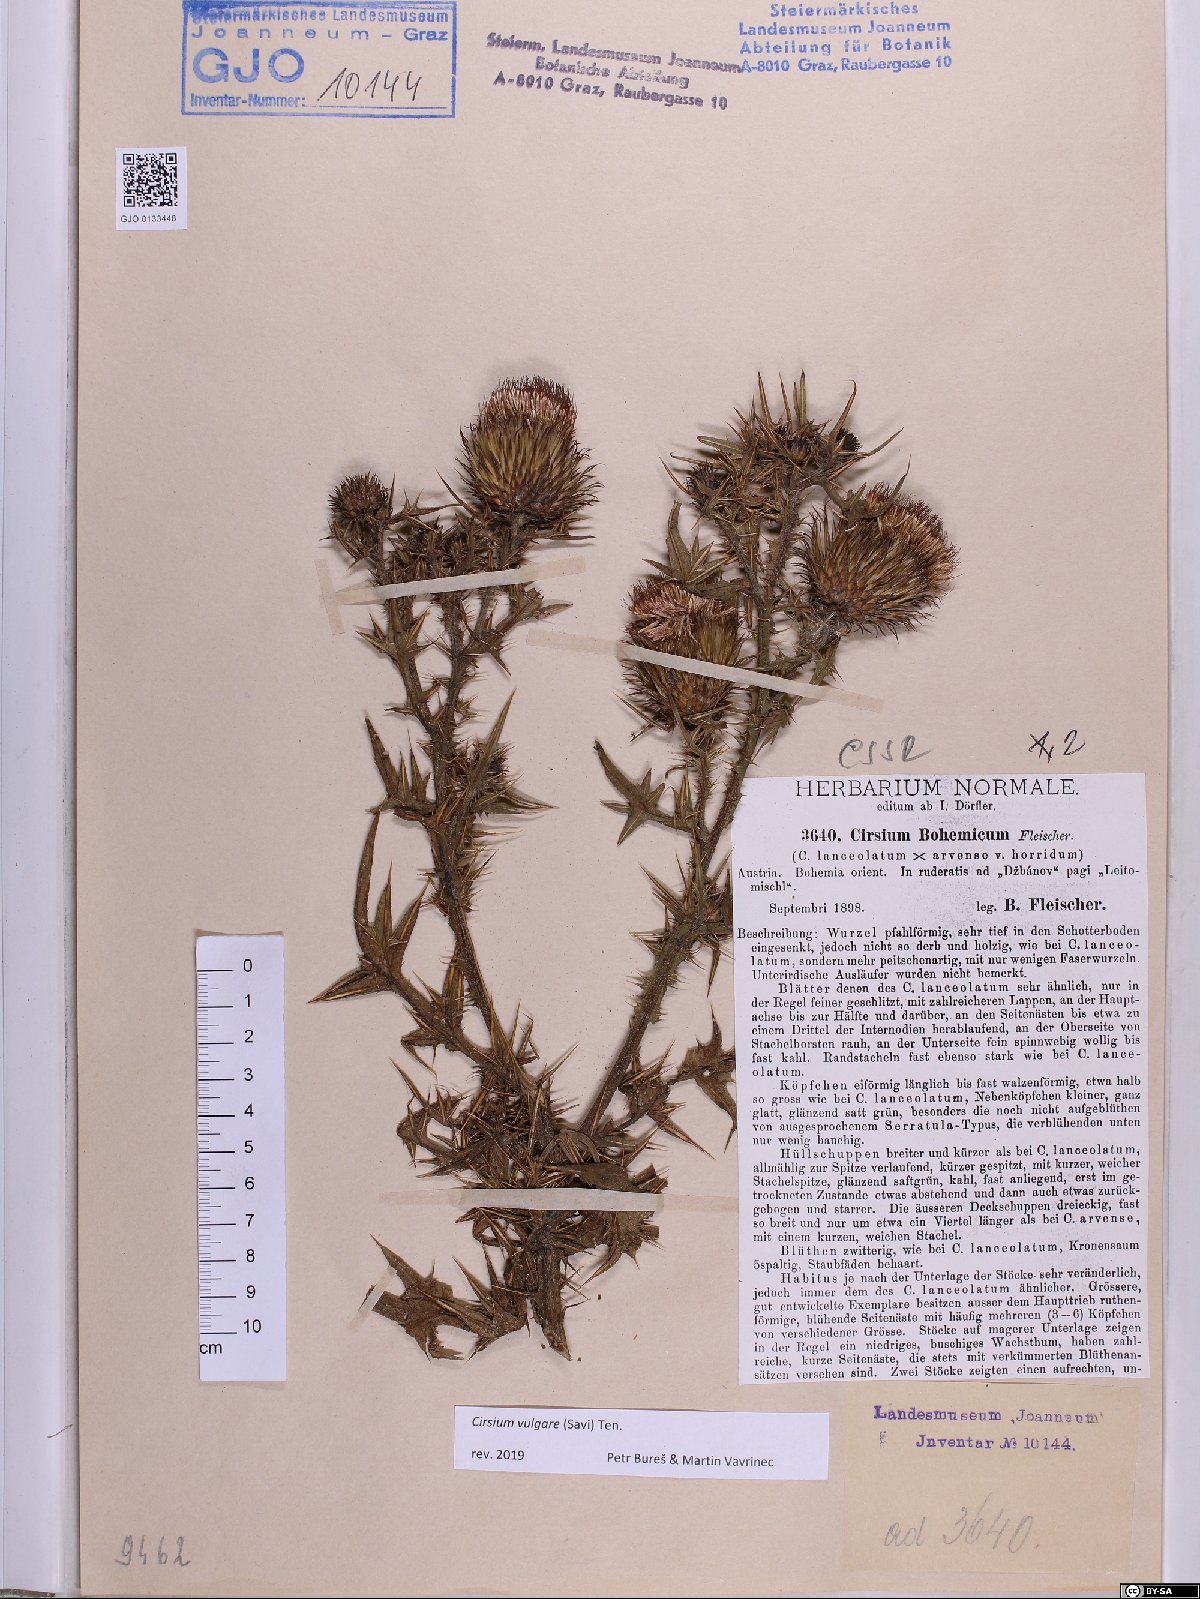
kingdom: Plantae
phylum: Tracheophyta
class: Magnoliopsida
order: Asterales
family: Asteraceae
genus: Cirsium
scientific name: Cirsium vulgare
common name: Bull thistle
